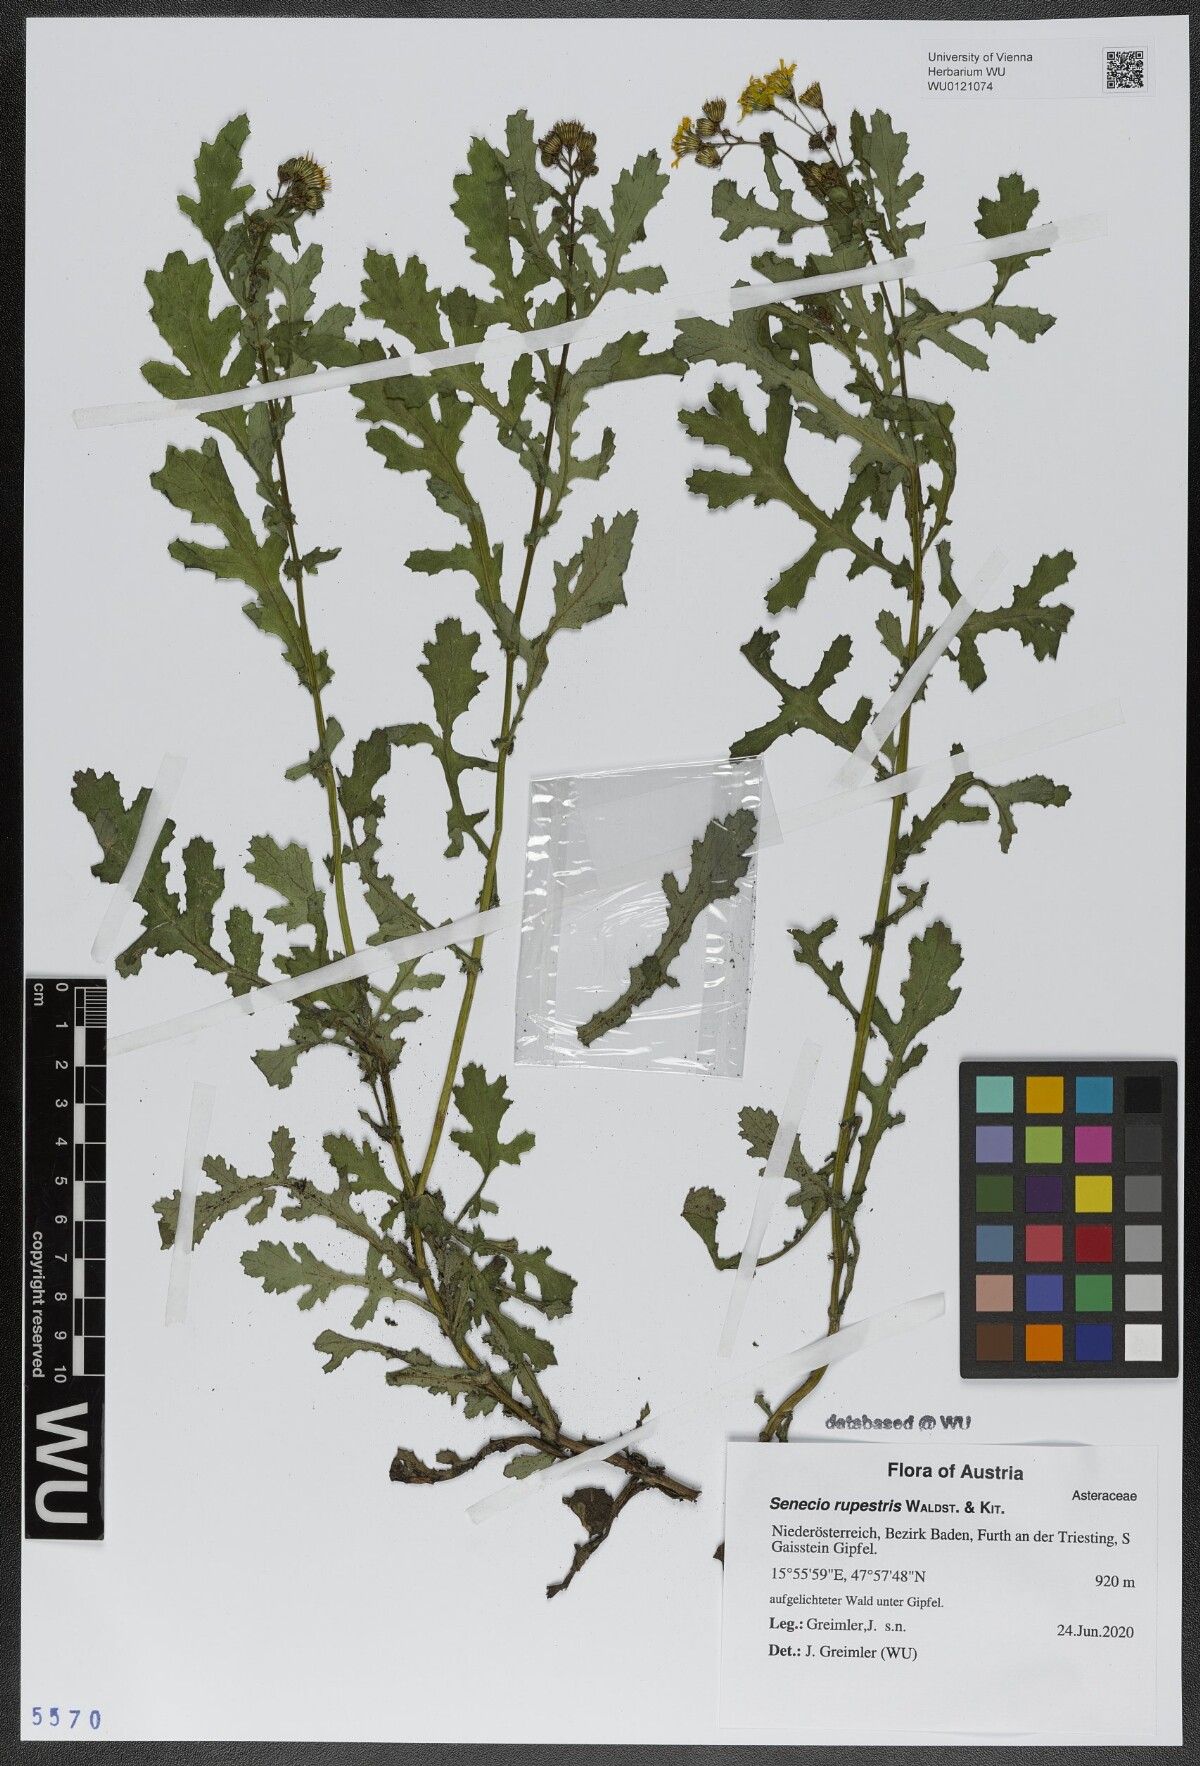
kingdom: Plantae
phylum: Tracheophyta
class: Magnoliopsida
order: Asterales
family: Asteraceae
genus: Senecio
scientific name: Senecio rupestris
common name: Rock ragwort
